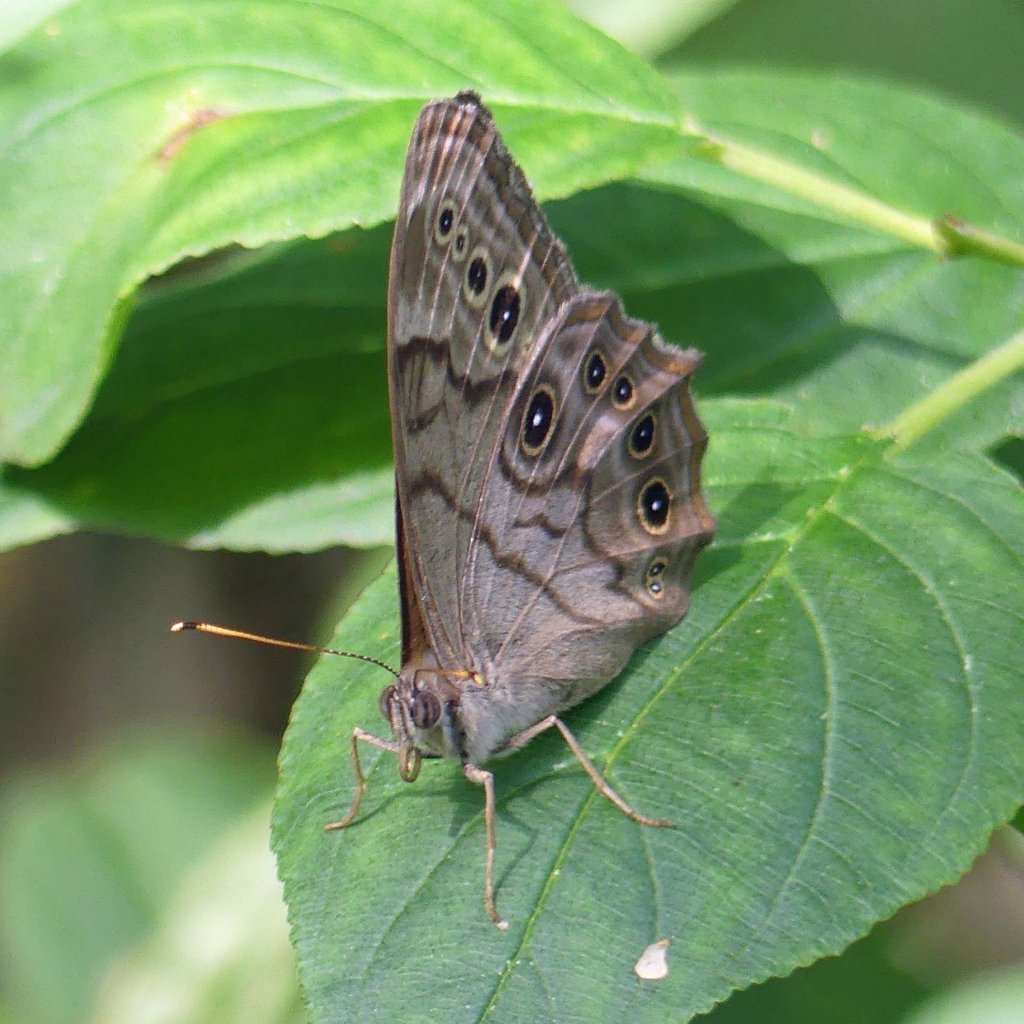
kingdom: Animalia
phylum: Arthropoda
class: Insecta
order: Lepidoptera
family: Nymphalidae
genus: Lethe
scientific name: Lethe anthedon
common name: Northern Pearly-Eye
